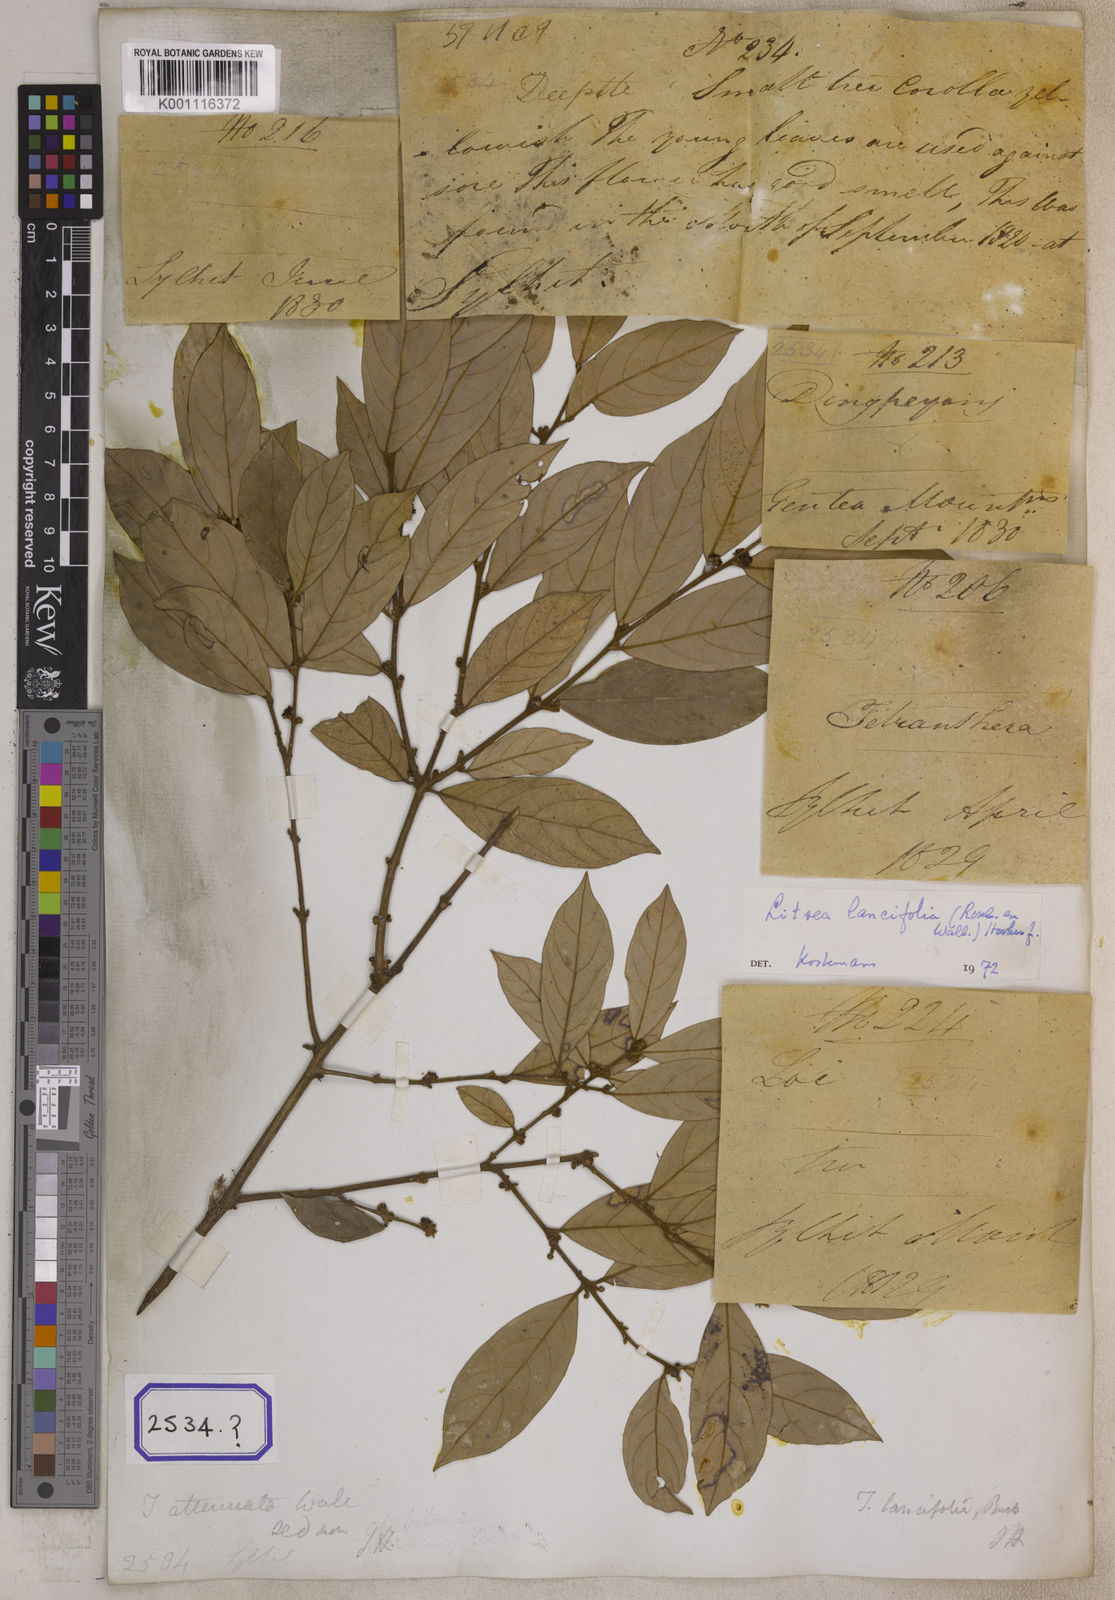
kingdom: Plantae
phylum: Tracheophyta
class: Magnoliopsida
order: Laurales
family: Lauraceae
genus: Litsea
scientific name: Litsea
